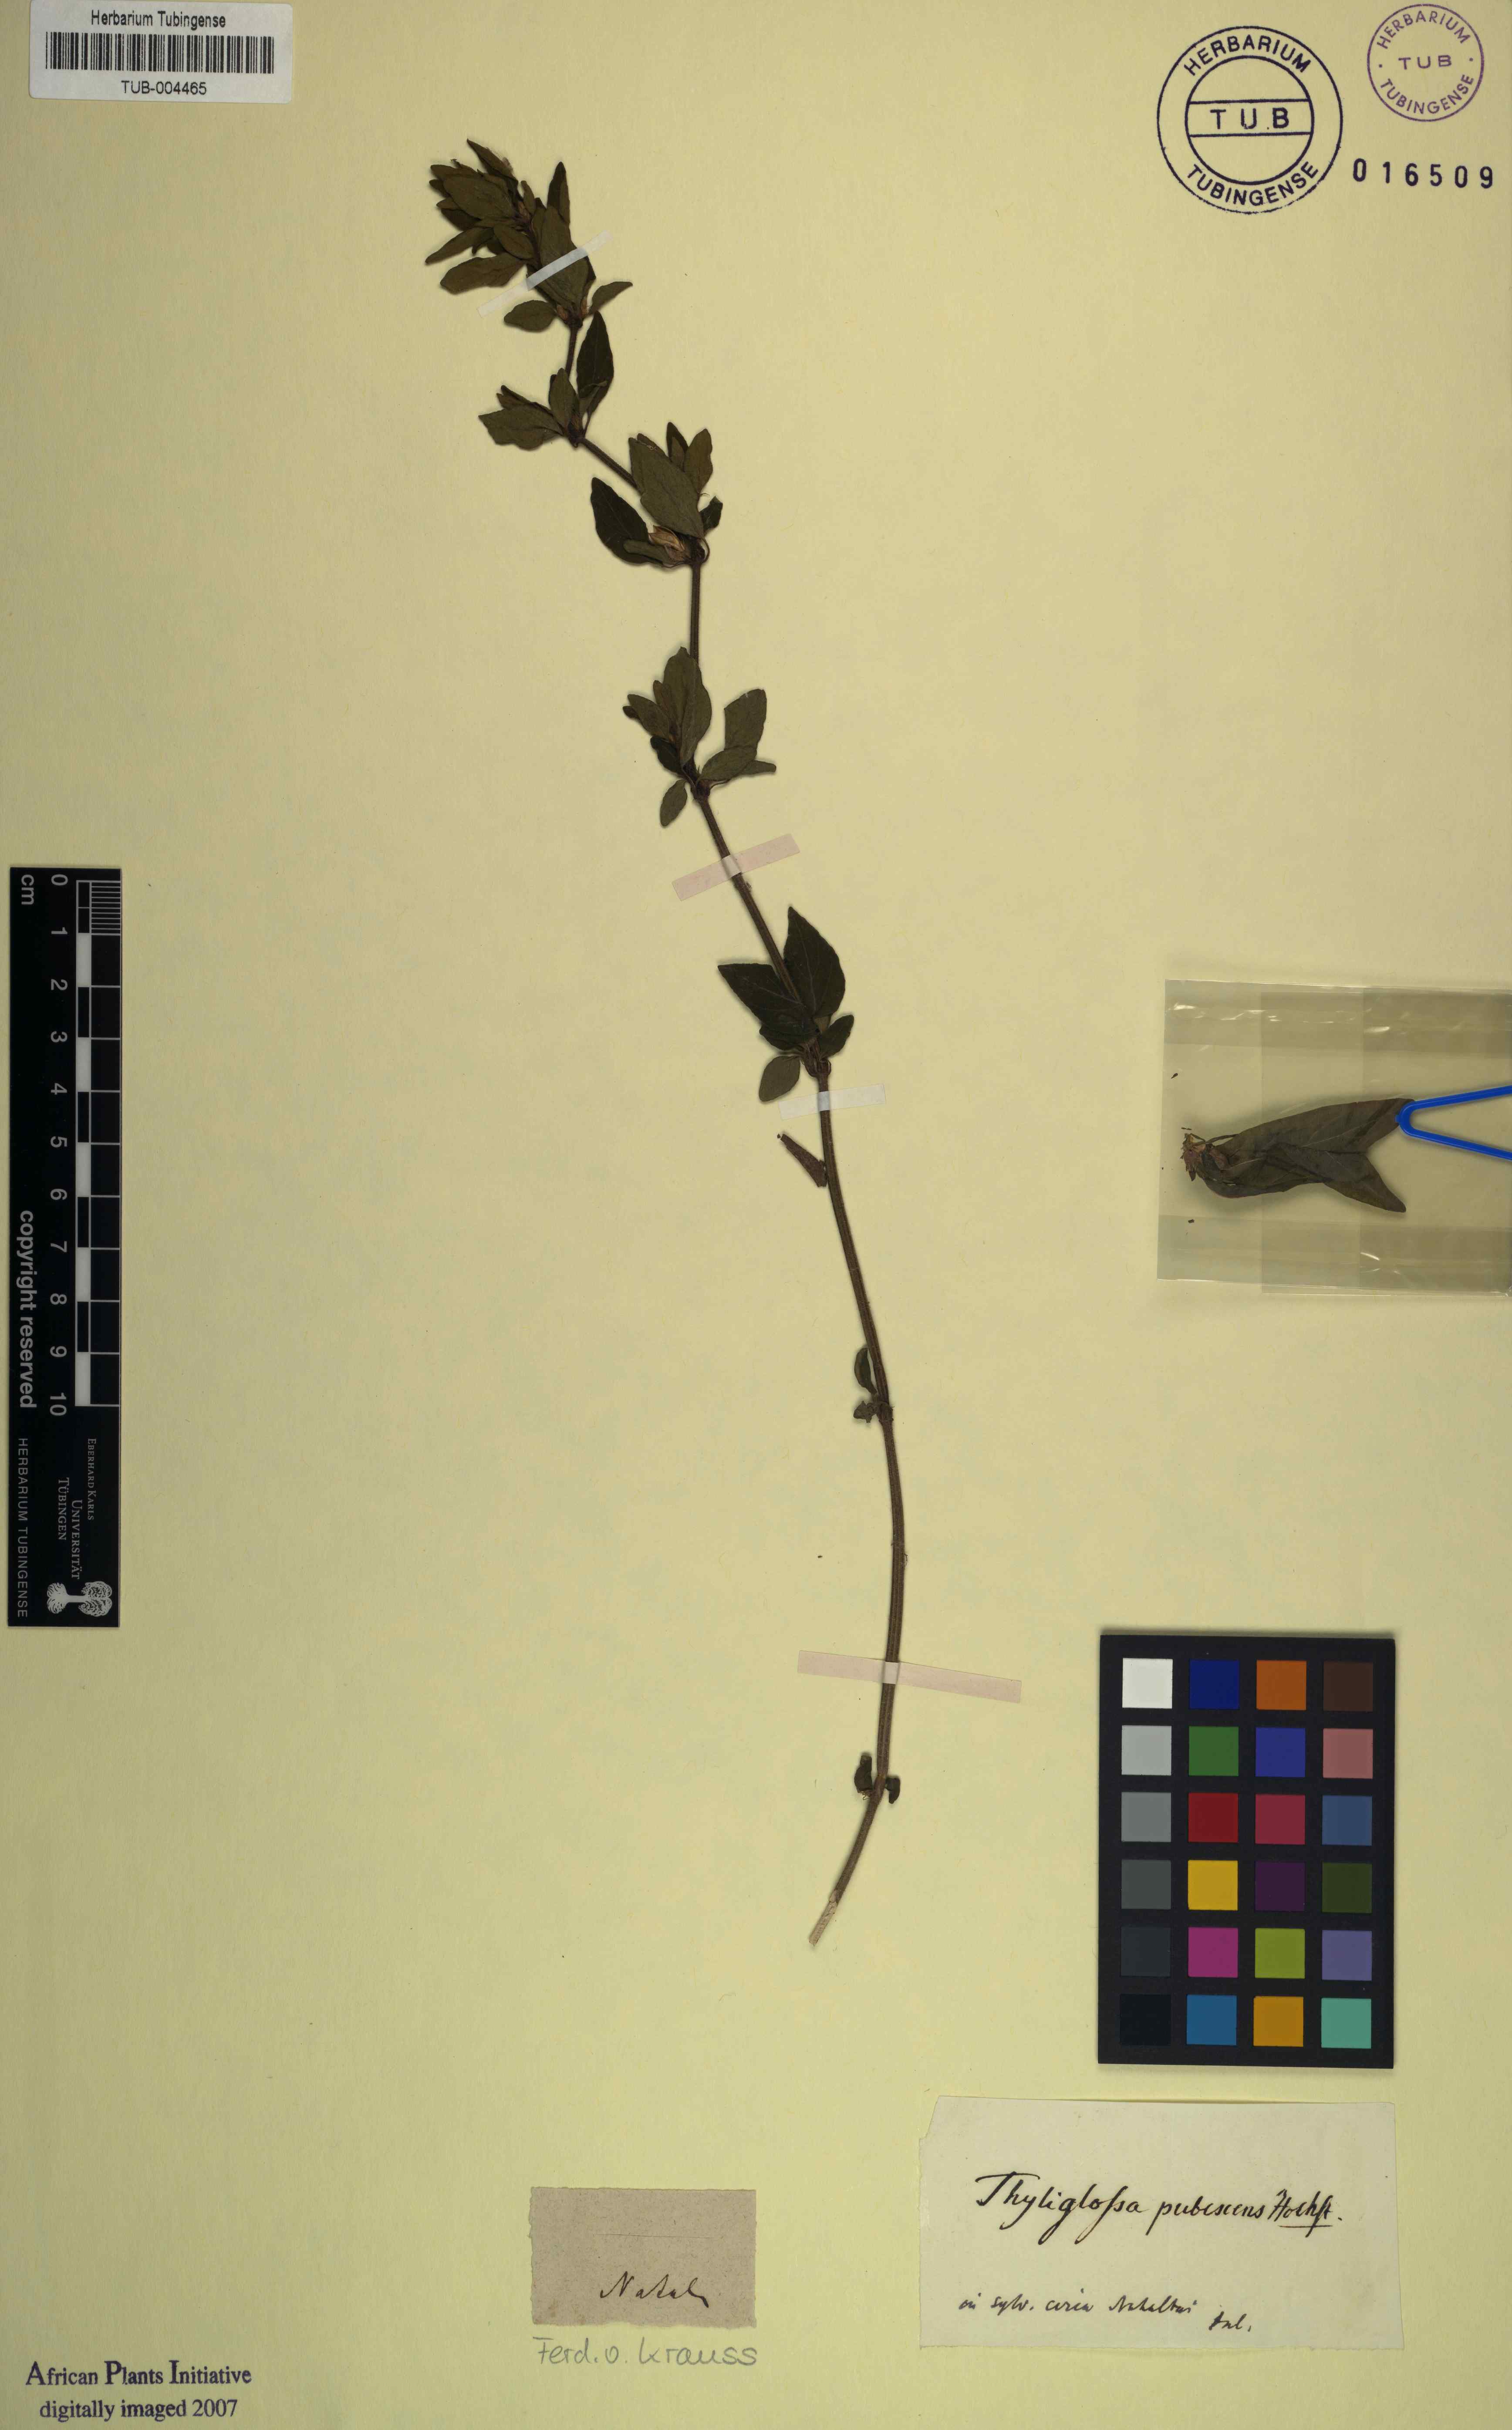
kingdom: Plantae
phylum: Tracheophyta
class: Magnoliopsida
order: Lamiales
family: Acanthaceae
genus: Dicliptera
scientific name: Dicliptera capensis
